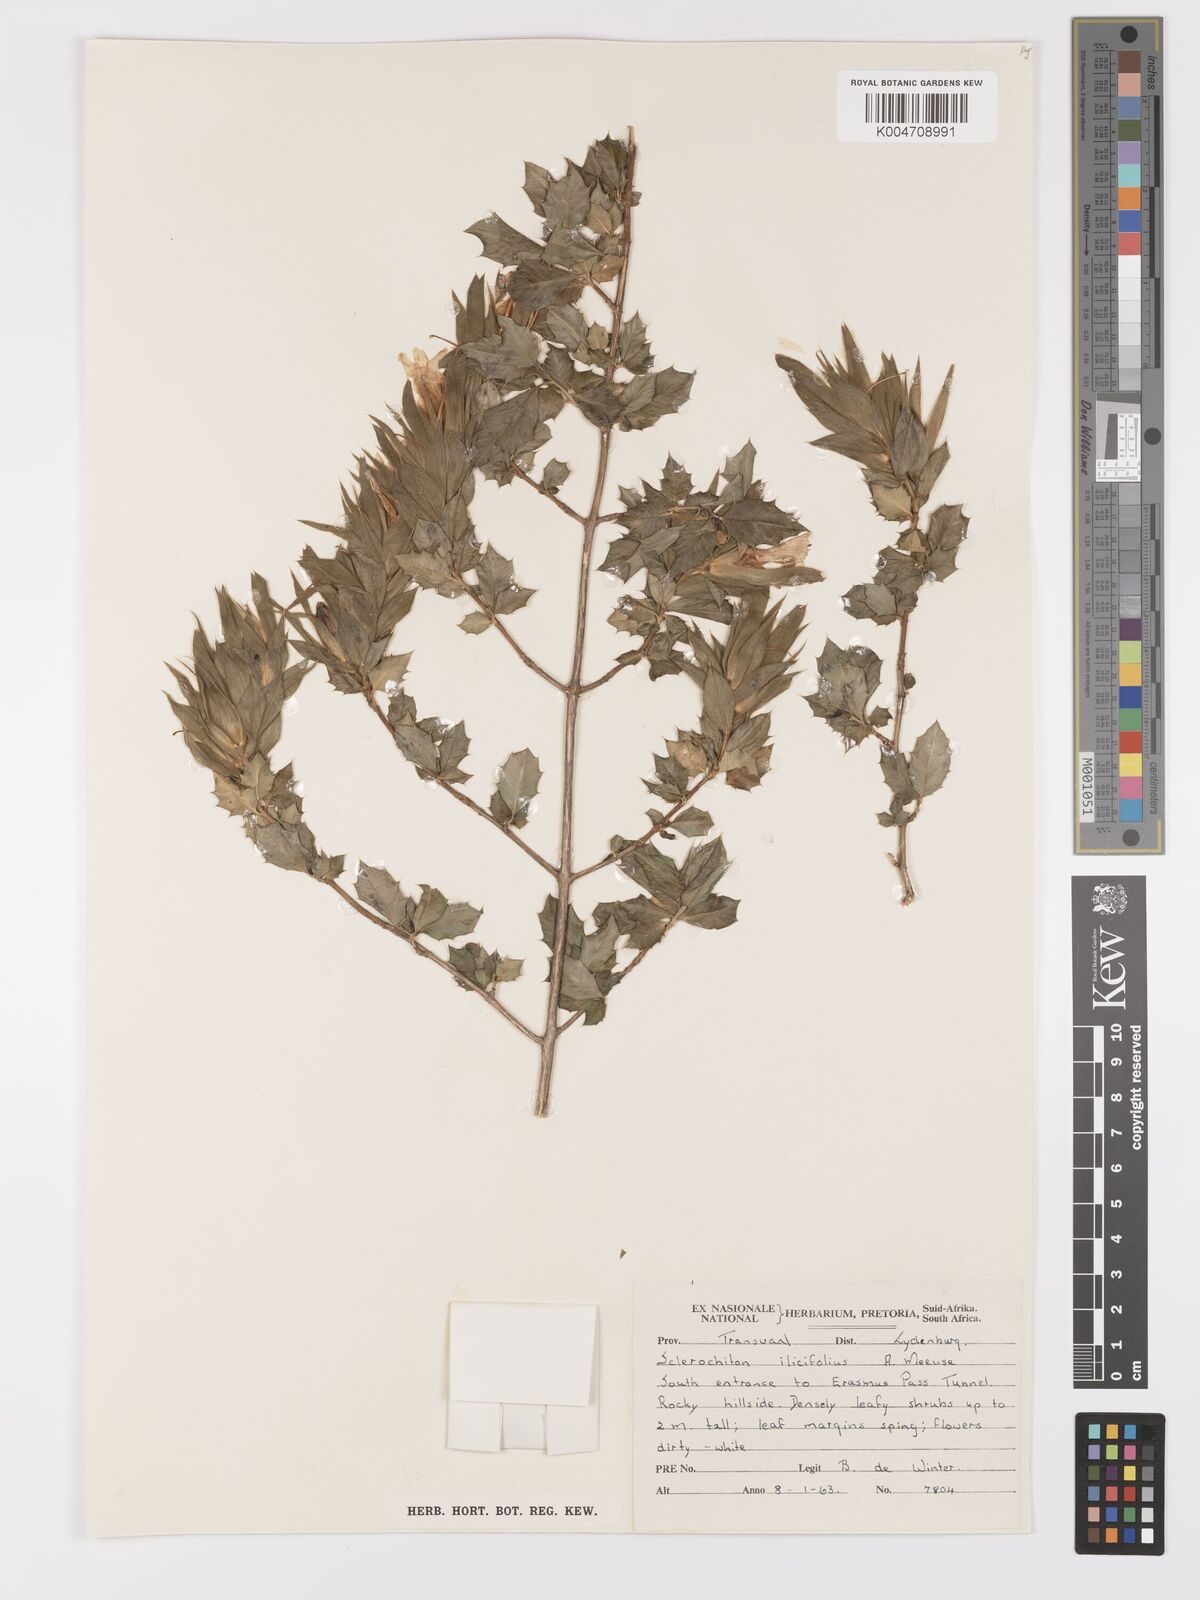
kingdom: Plantae
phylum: Tracheophyta
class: Magnoliopsida
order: Lamiales
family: Acanthaceae
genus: Sclerochiton
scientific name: Sclerochiton ilicifolius
